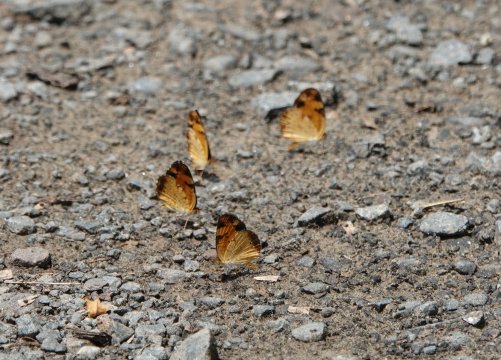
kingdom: Animalia
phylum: Arthropoda
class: Insecta
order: Lepidoptera
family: Nymphalidae
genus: Phyciodes
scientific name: Phyciodes tharos
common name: Pearl Crescent
